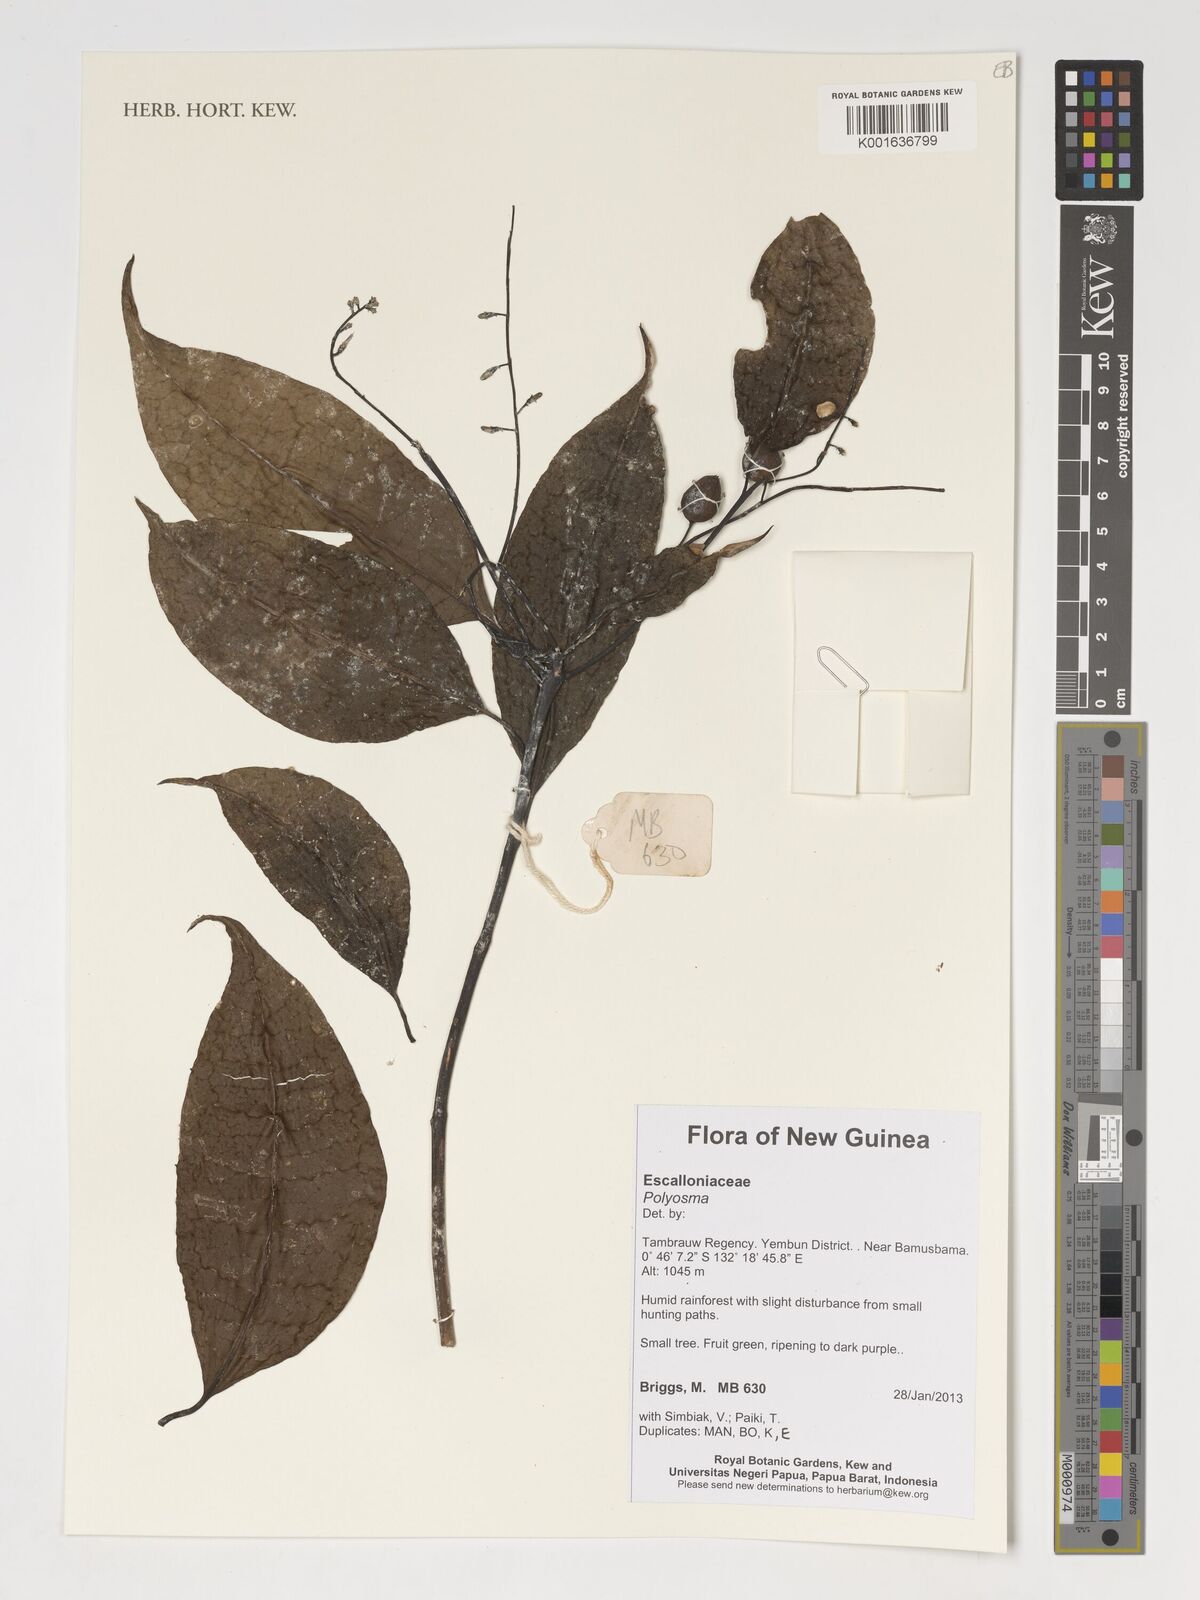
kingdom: Plantae
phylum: Tracheophyta
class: Magnoliopsida
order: Escalloniales
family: Escalloniaceae
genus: Polyosma
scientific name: Polyosma
